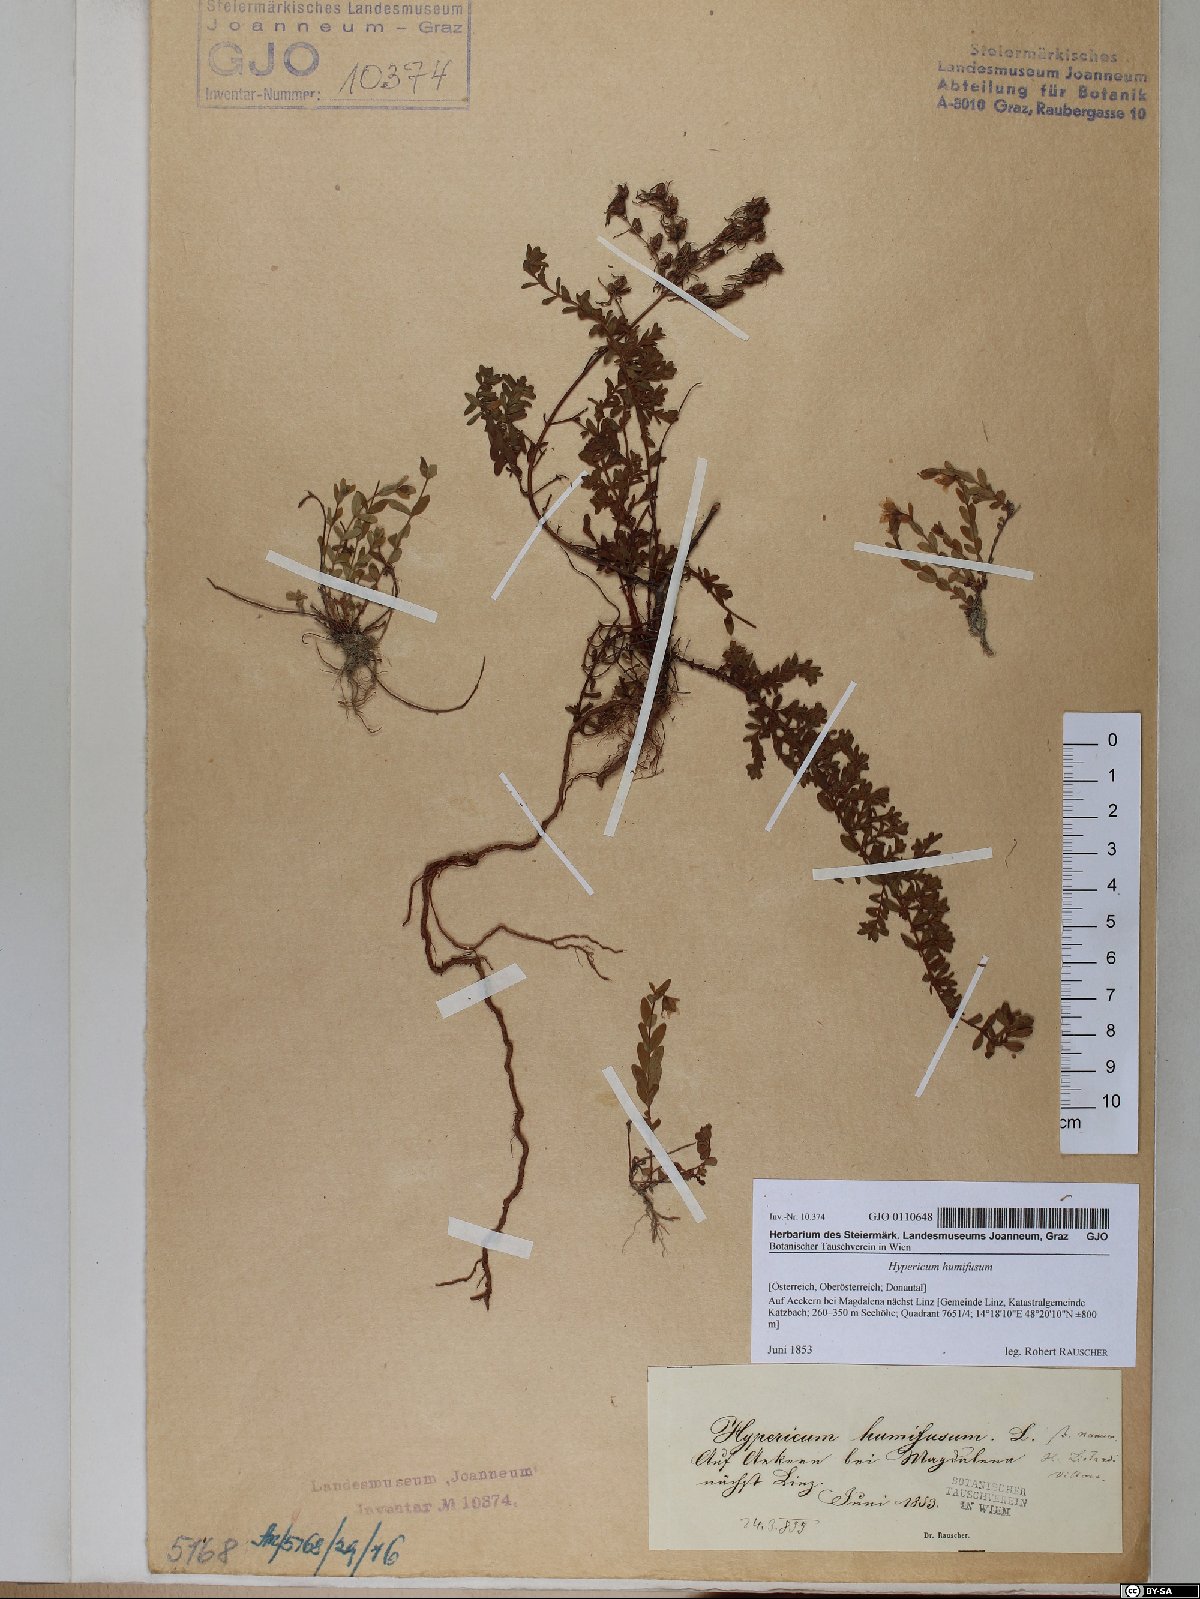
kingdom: Plantae
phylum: Tracheophyta
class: Magnoliopsida
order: Malpighiales
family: Hypericaceae
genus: Hypericum
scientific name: Hypericum humifusum
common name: Trailing st. john's-wort
